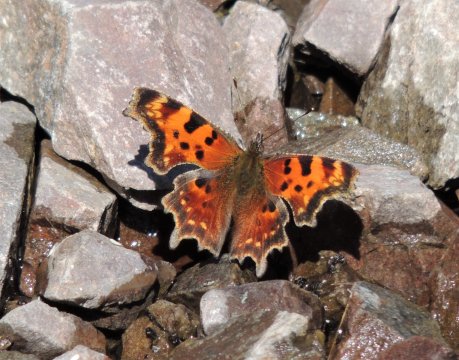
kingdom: Animalia
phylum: Arthropoda
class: Insecta
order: Lepidoptera
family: Nymphalidae
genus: Polygonia
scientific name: Polygonia faunus
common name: Green Comma
